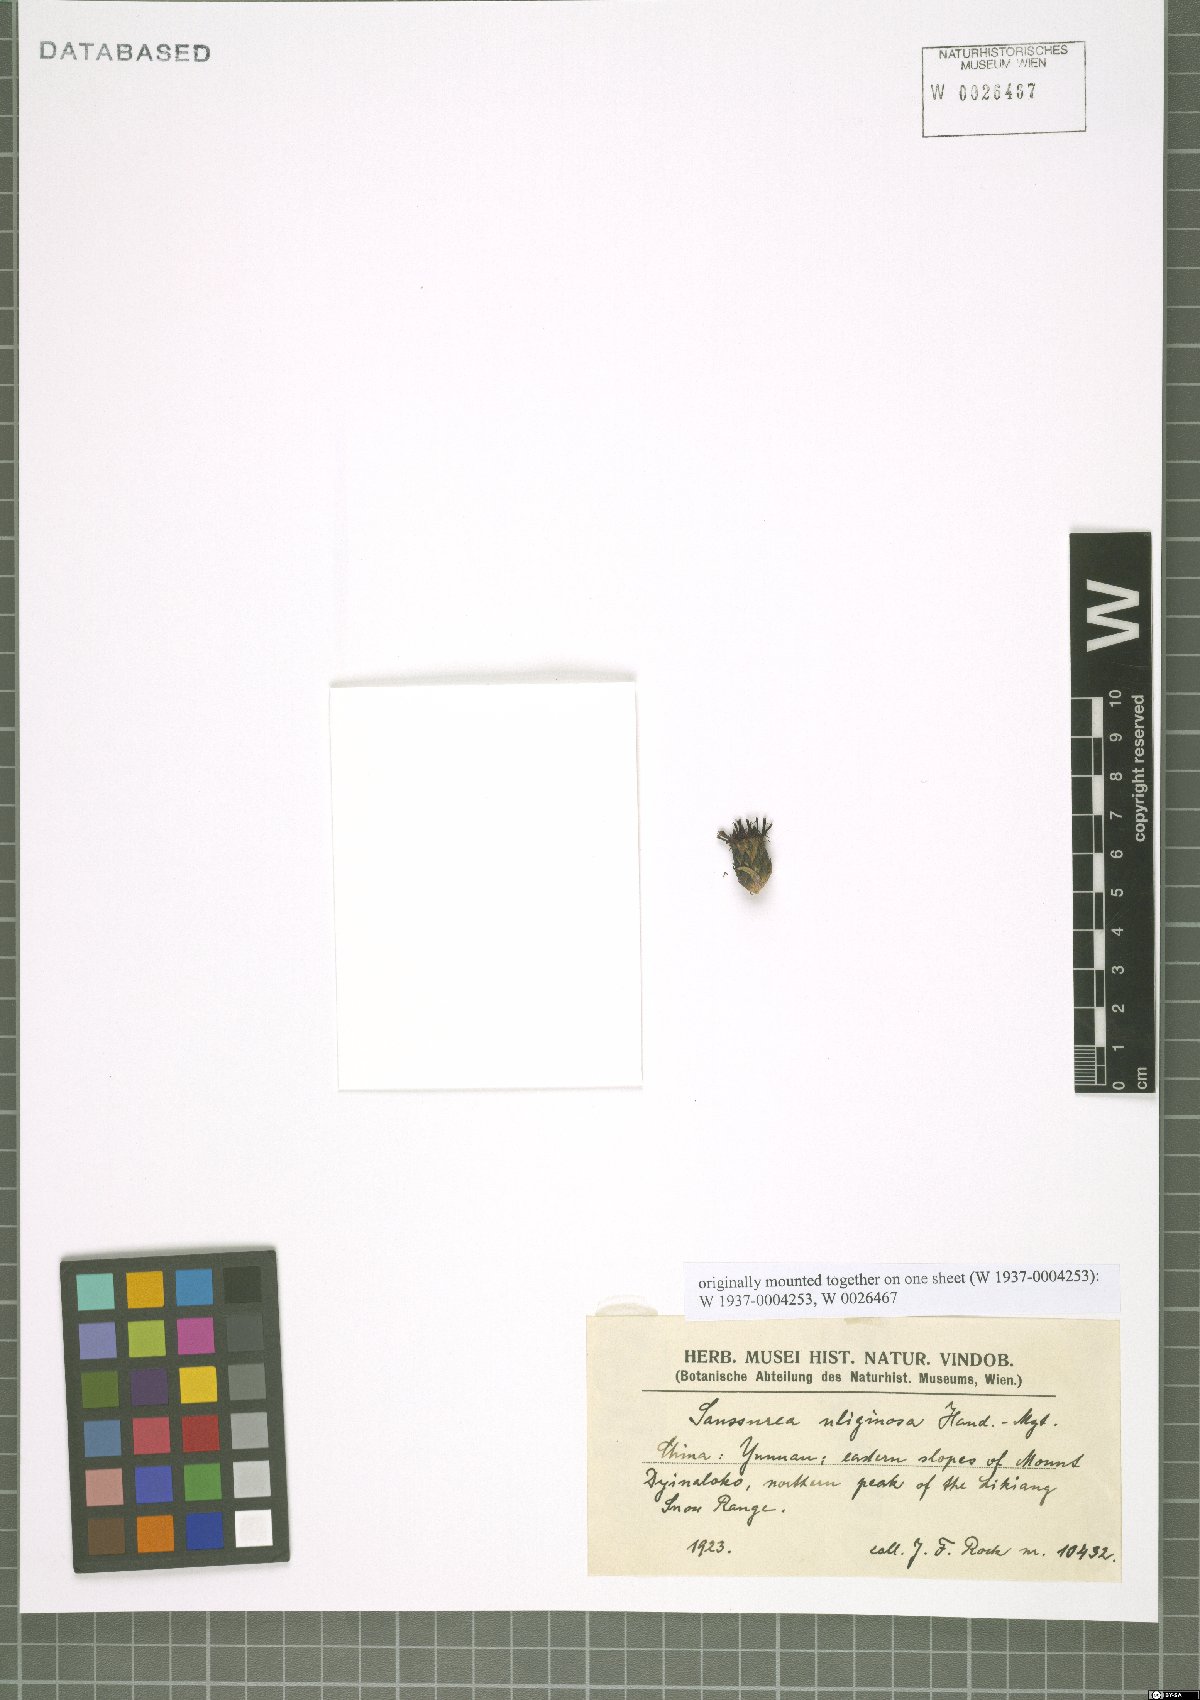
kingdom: Plantae
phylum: Tracheophyta
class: Magnoliopsida
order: Asterales
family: Asteraceae
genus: Saussurea
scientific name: Saussurea uliginosa
